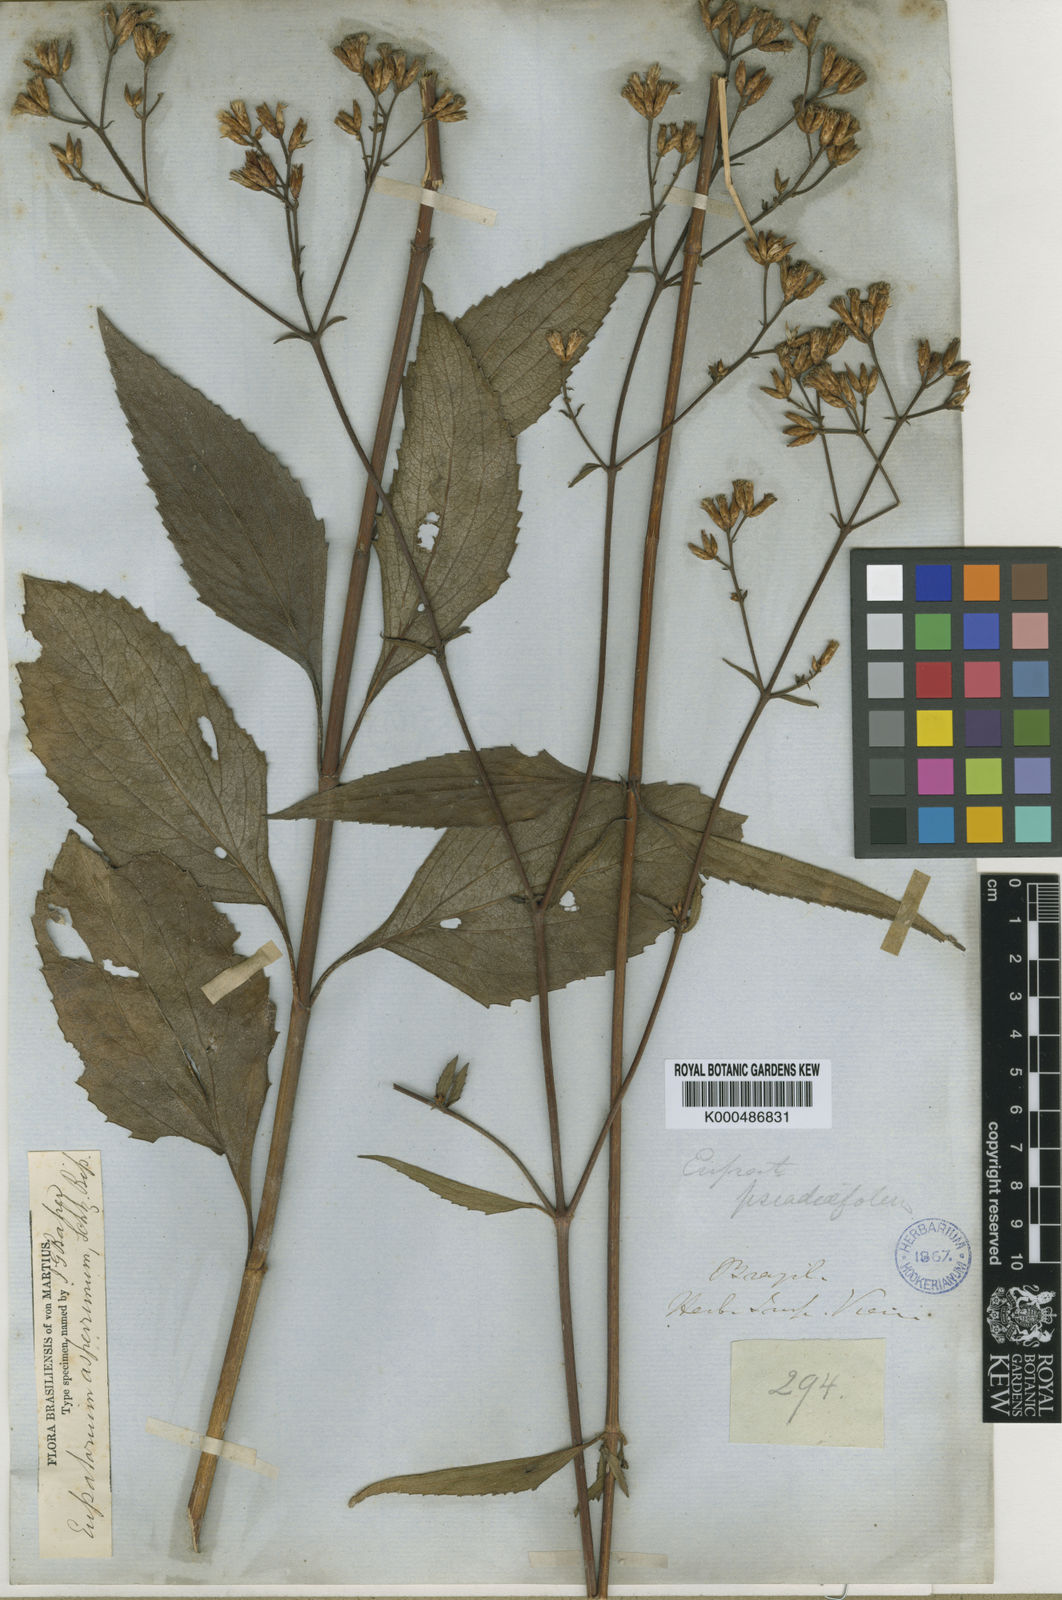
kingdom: Plantae
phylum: Tracheophyta
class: Magnoliopsida
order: Asterales
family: Asteraceae
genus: Chromolaena
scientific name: Chromolaena asperrima
